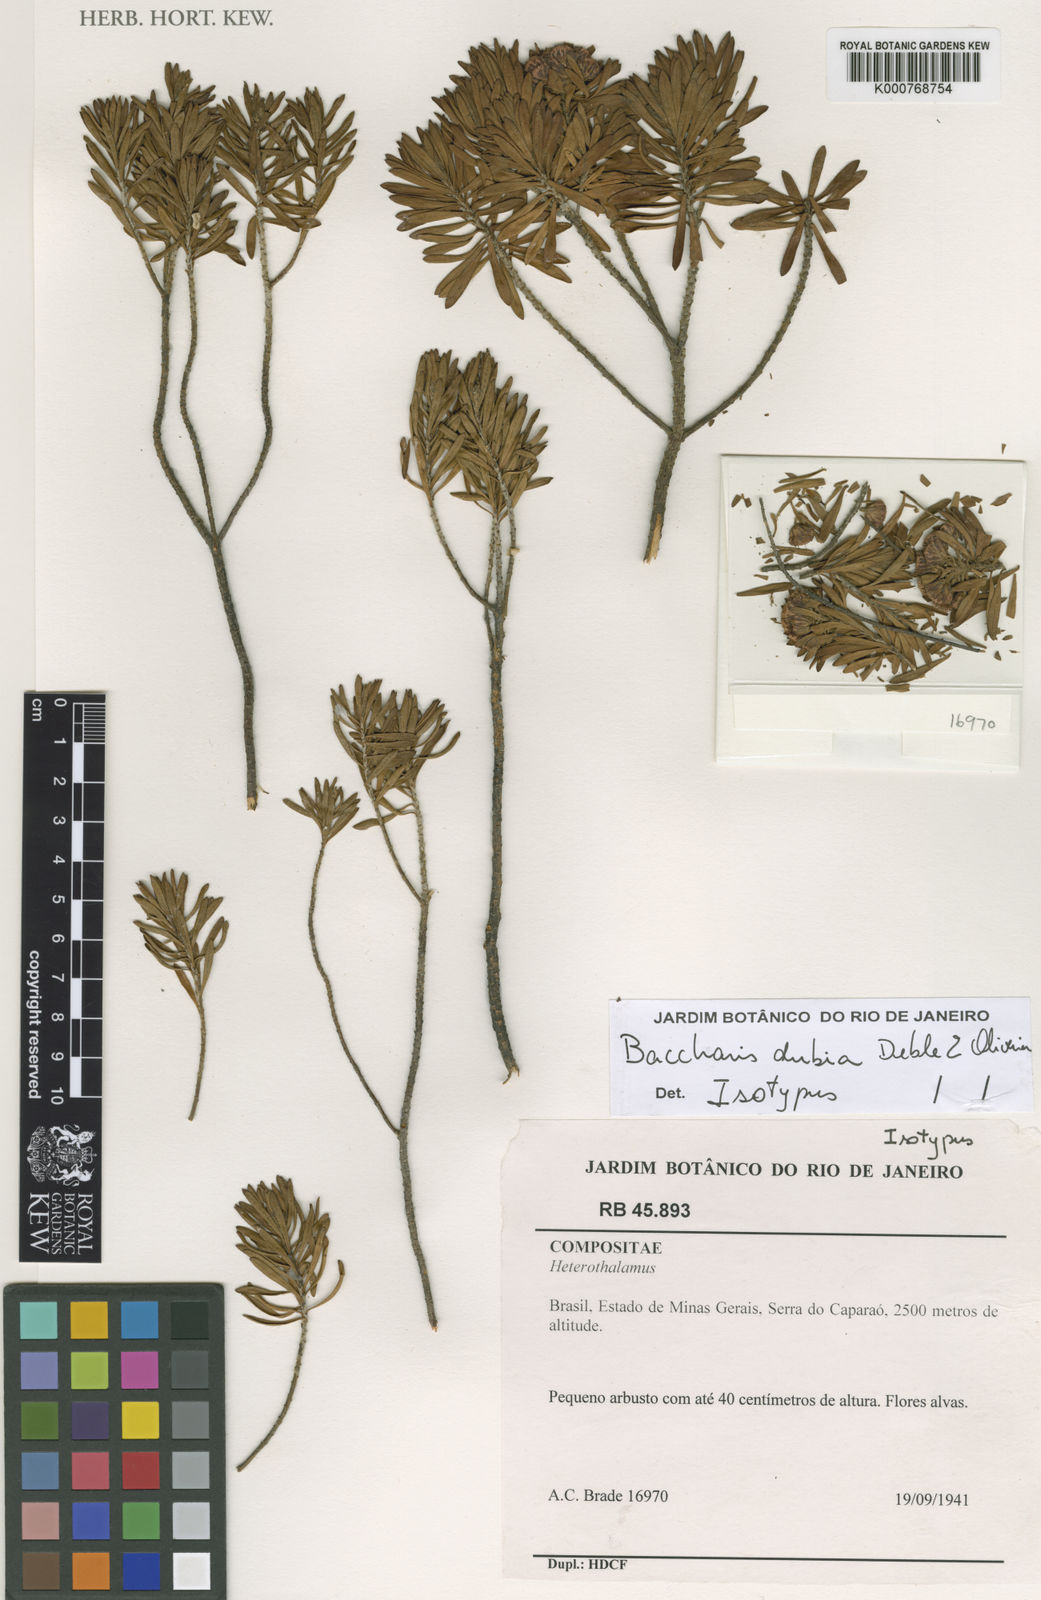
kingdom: Plantae
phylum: Tracheophyta
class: Magnoliopsida
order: Asterales
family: Asteraceae
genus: Baccharis
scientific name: Baccharis dubia
